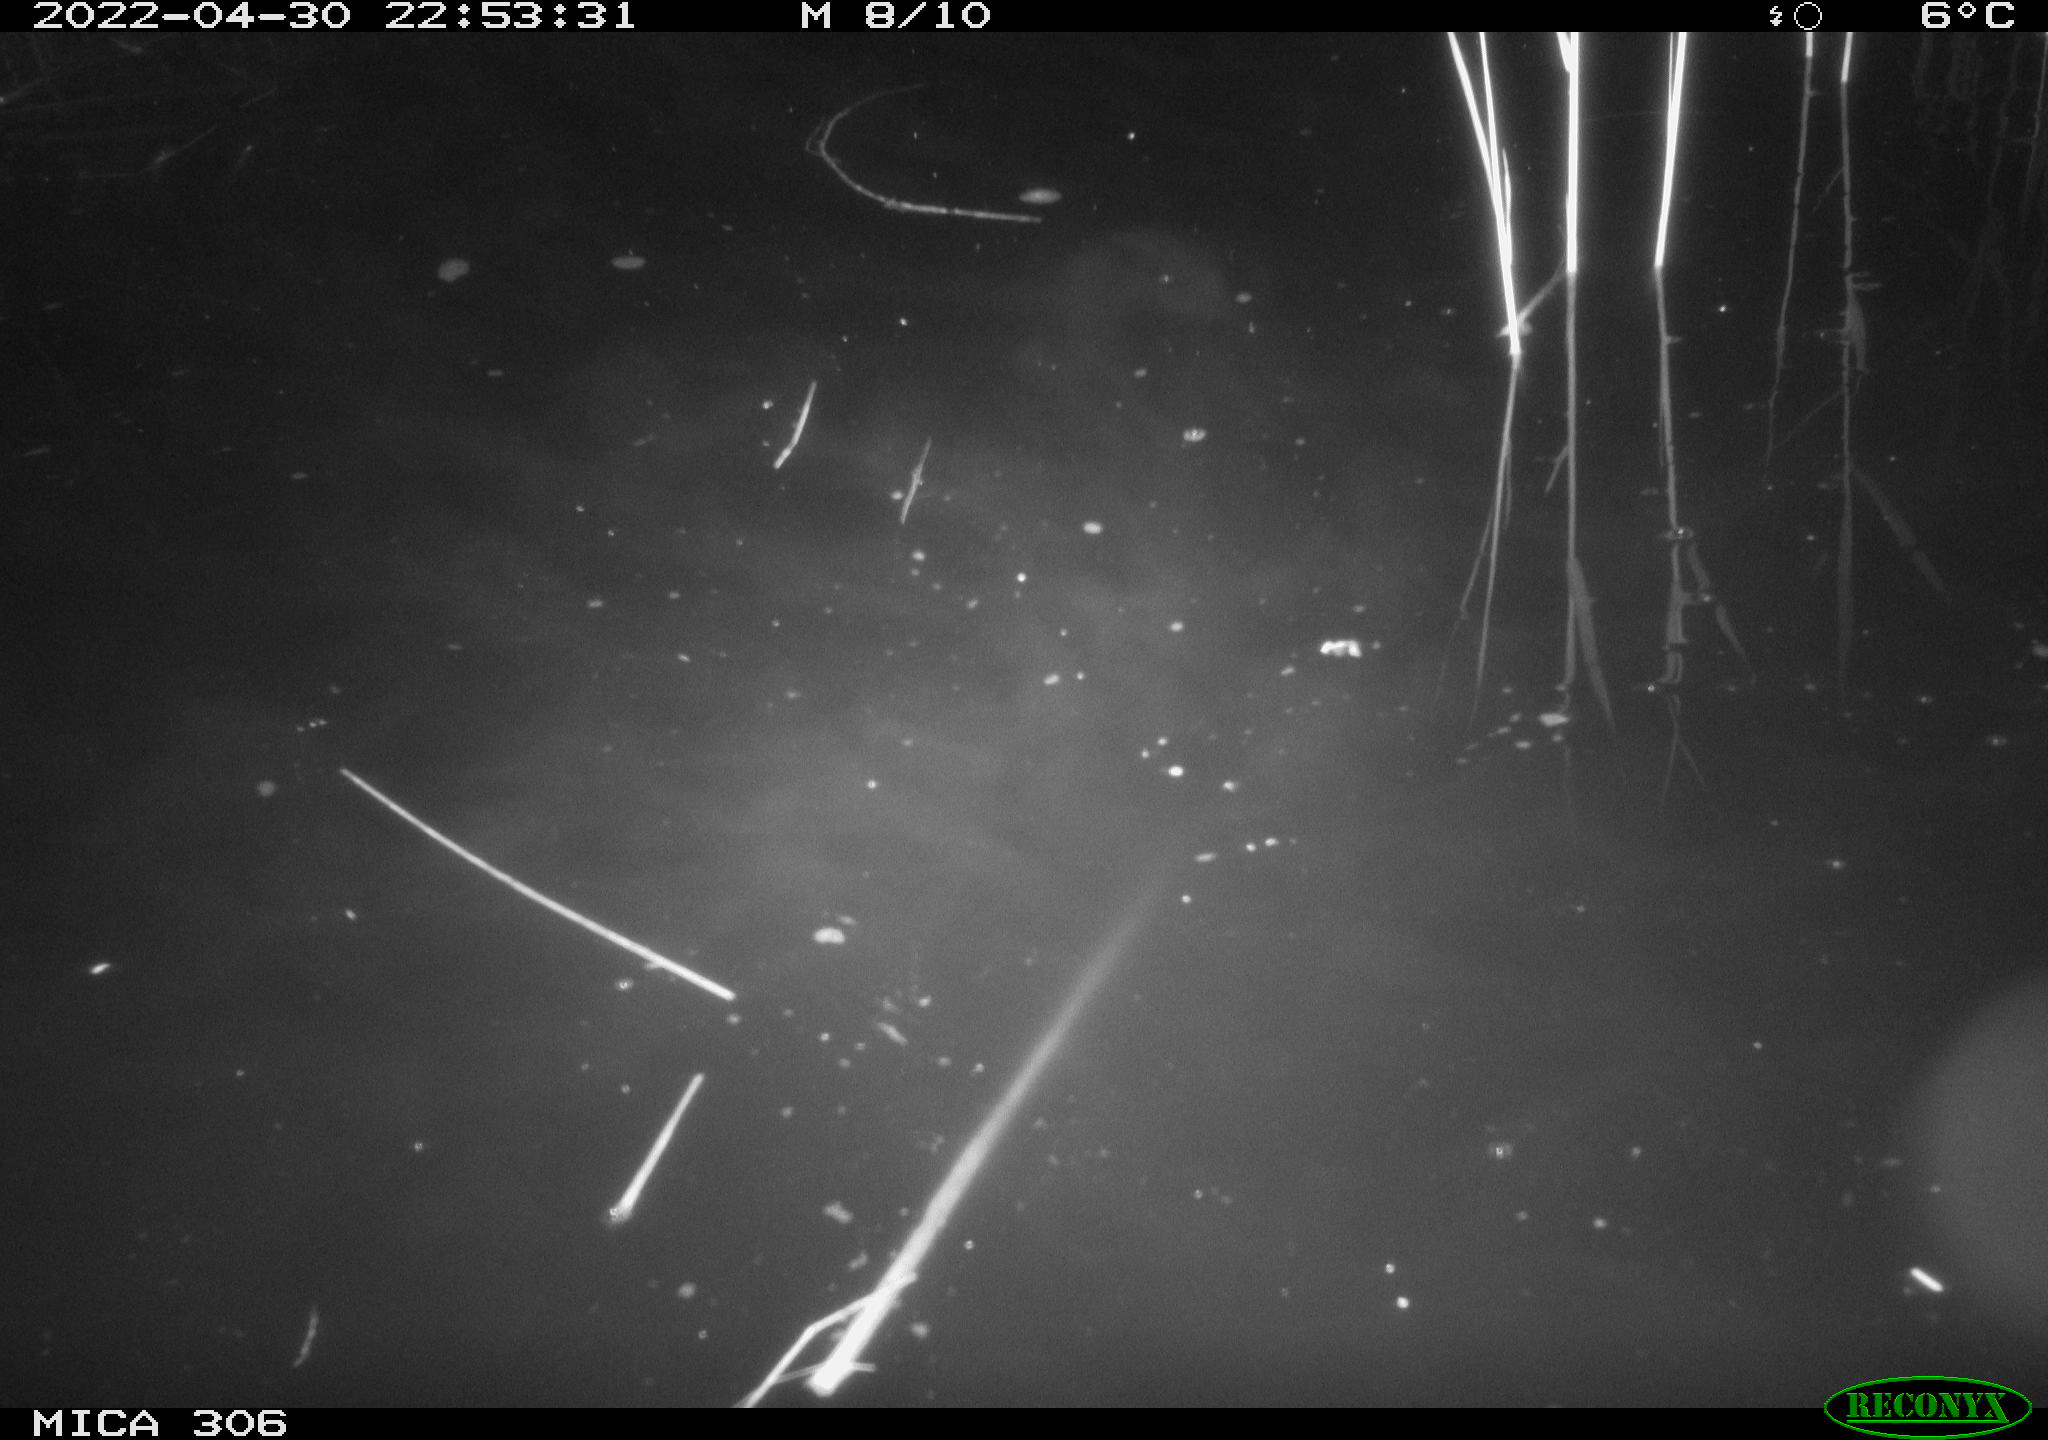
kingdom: Animalia
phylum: Chordata
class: Mammalia
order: Rodentia
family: Muridae
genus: Rattus
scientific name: Rattus norvegicus
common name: Brown rat
